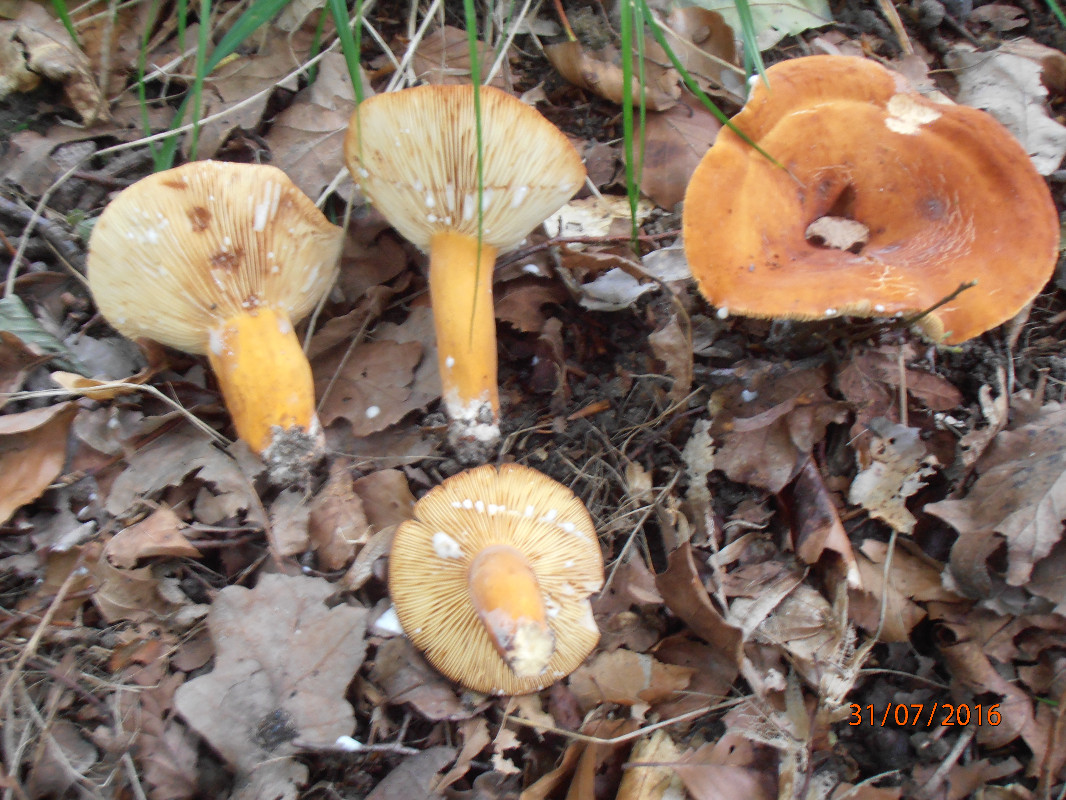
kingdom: Fungi
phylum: Basidiomycota
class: Agaricomycetes
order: Russulales
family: Russulaceae
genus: Lactifluus
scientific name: Lactifluus volemus
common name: spiselig mælkehat
